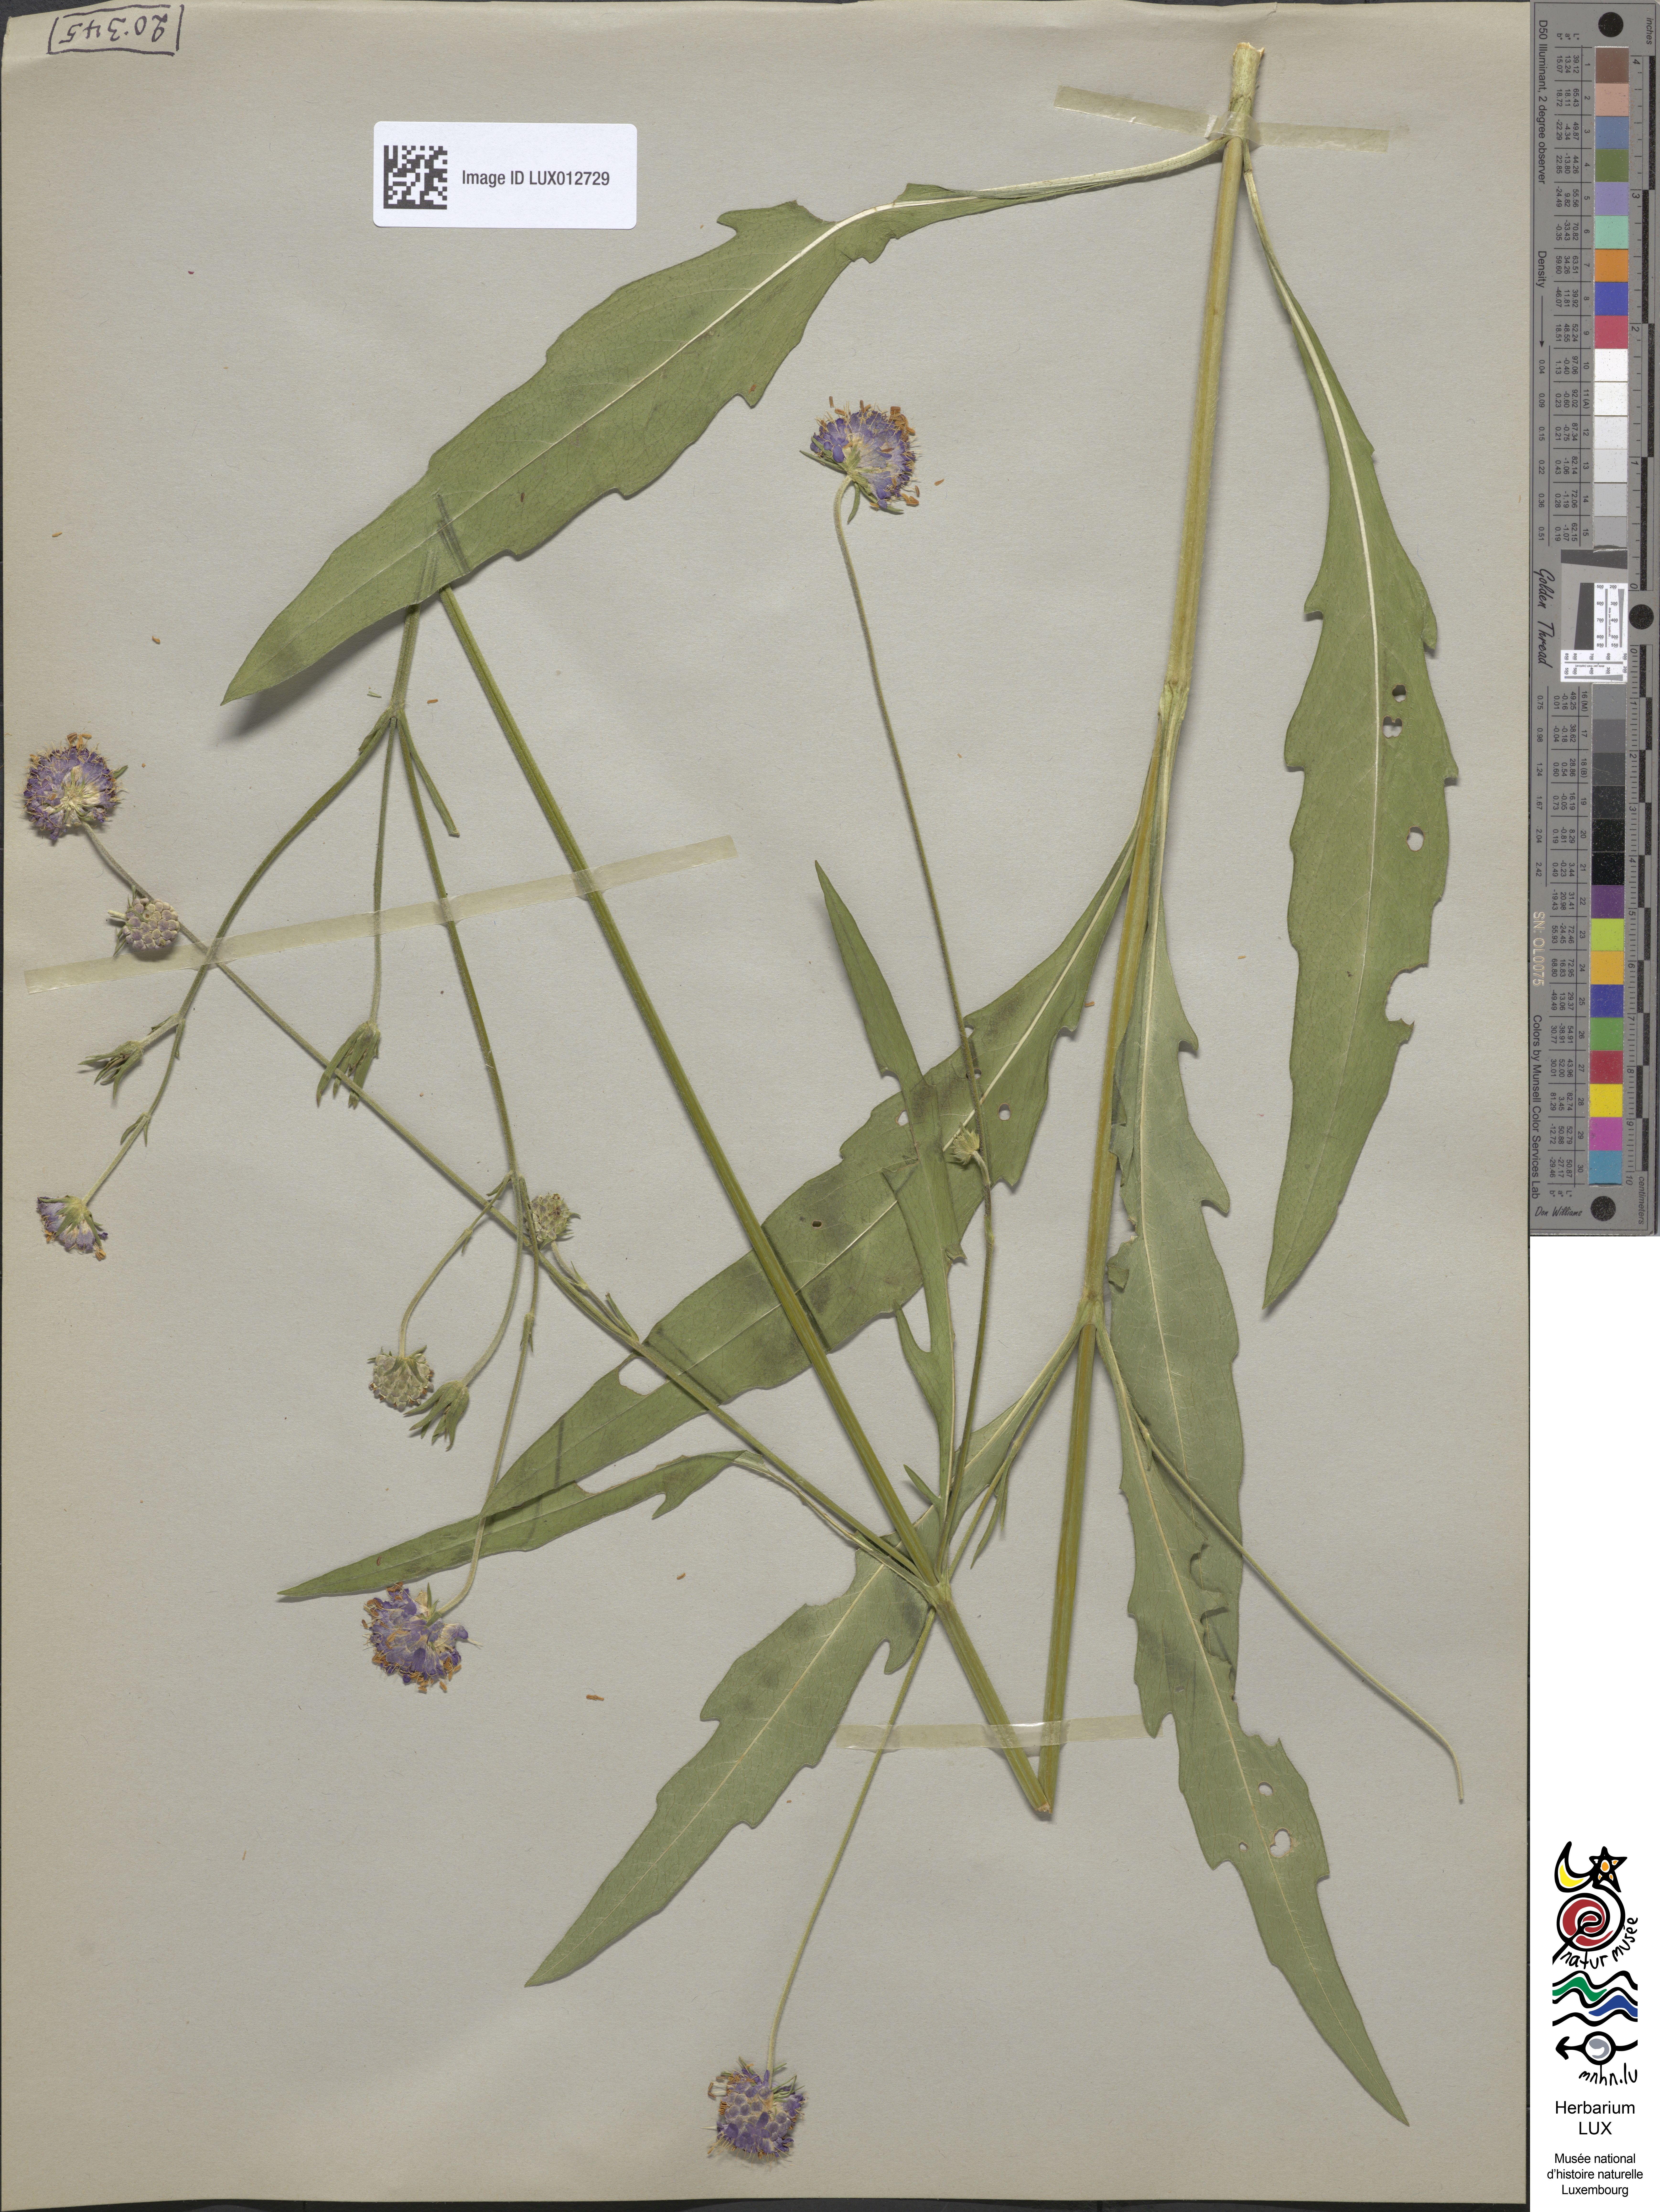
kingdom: Plantae
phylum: Tracheophyta
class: Magnoliopsida
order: Dipsacales
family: Caprifoliaceae
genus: Succisa
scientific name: Succisa pratensis
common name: Devil's-bit
